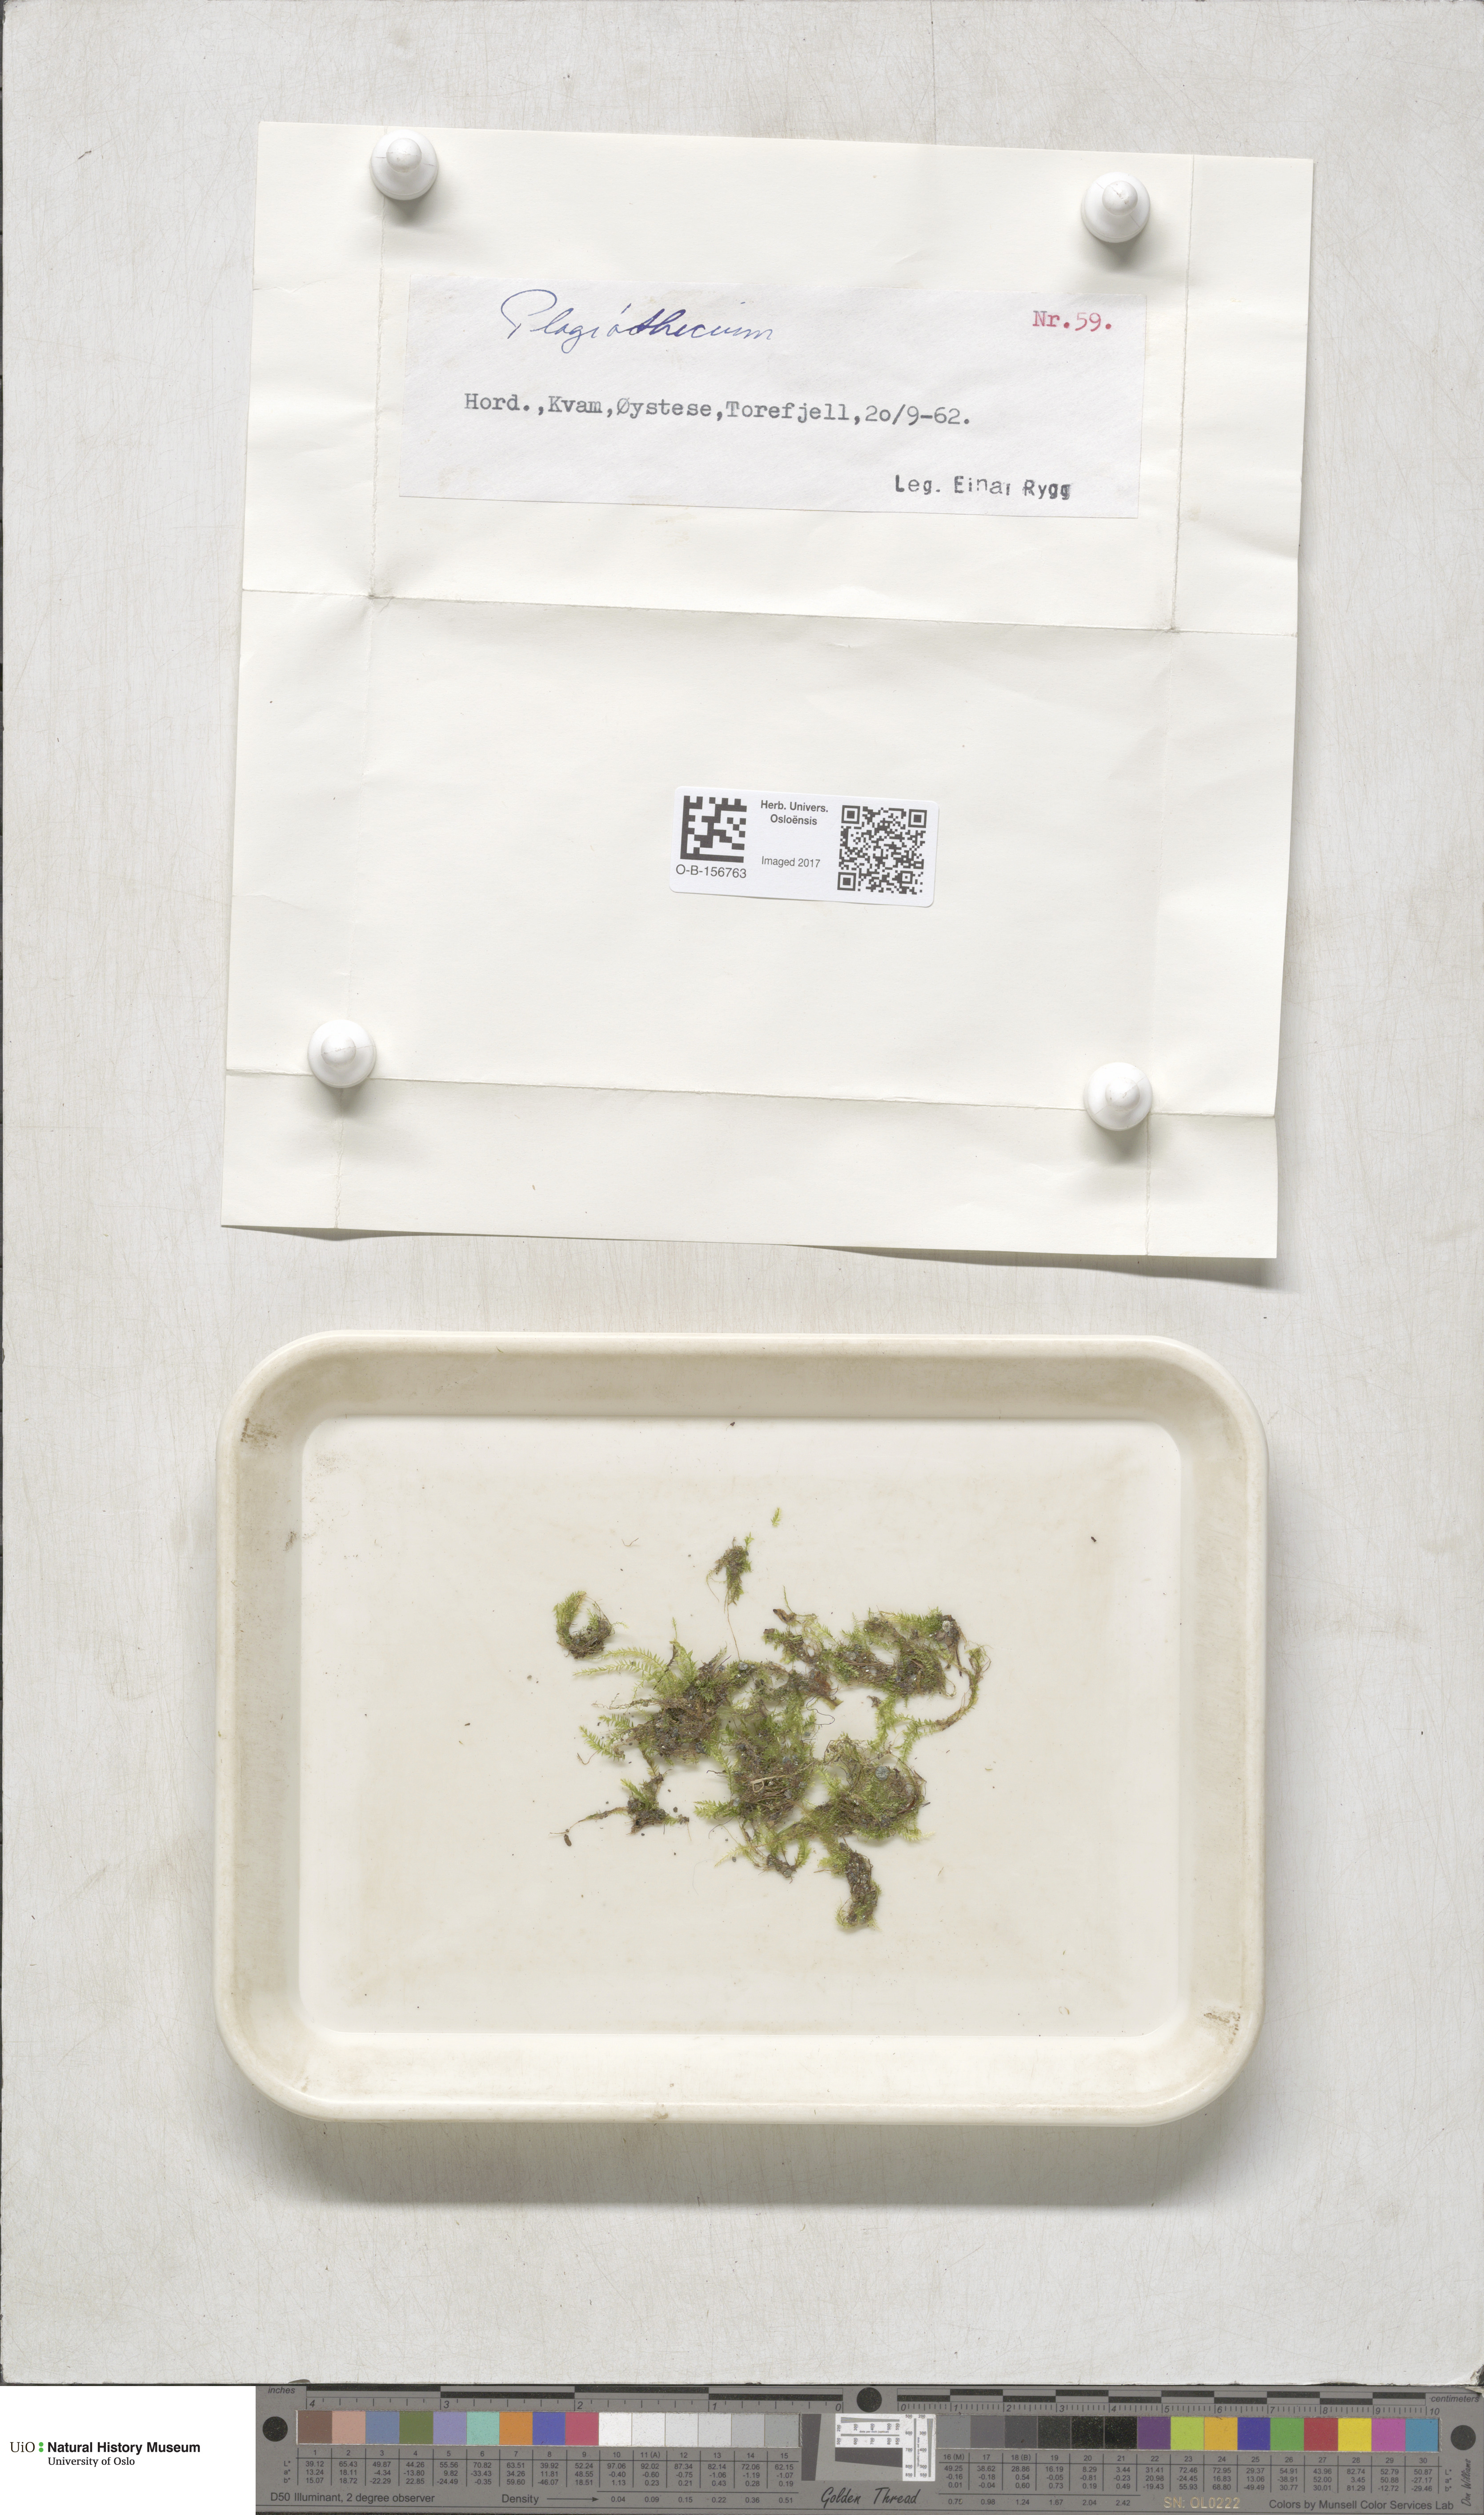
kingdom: Plantae
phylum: Bryophyta
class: Bryopsida
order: Hypnales
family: Plagiotheciaceae
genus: Plagiothecium
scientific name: Plagiothecium
